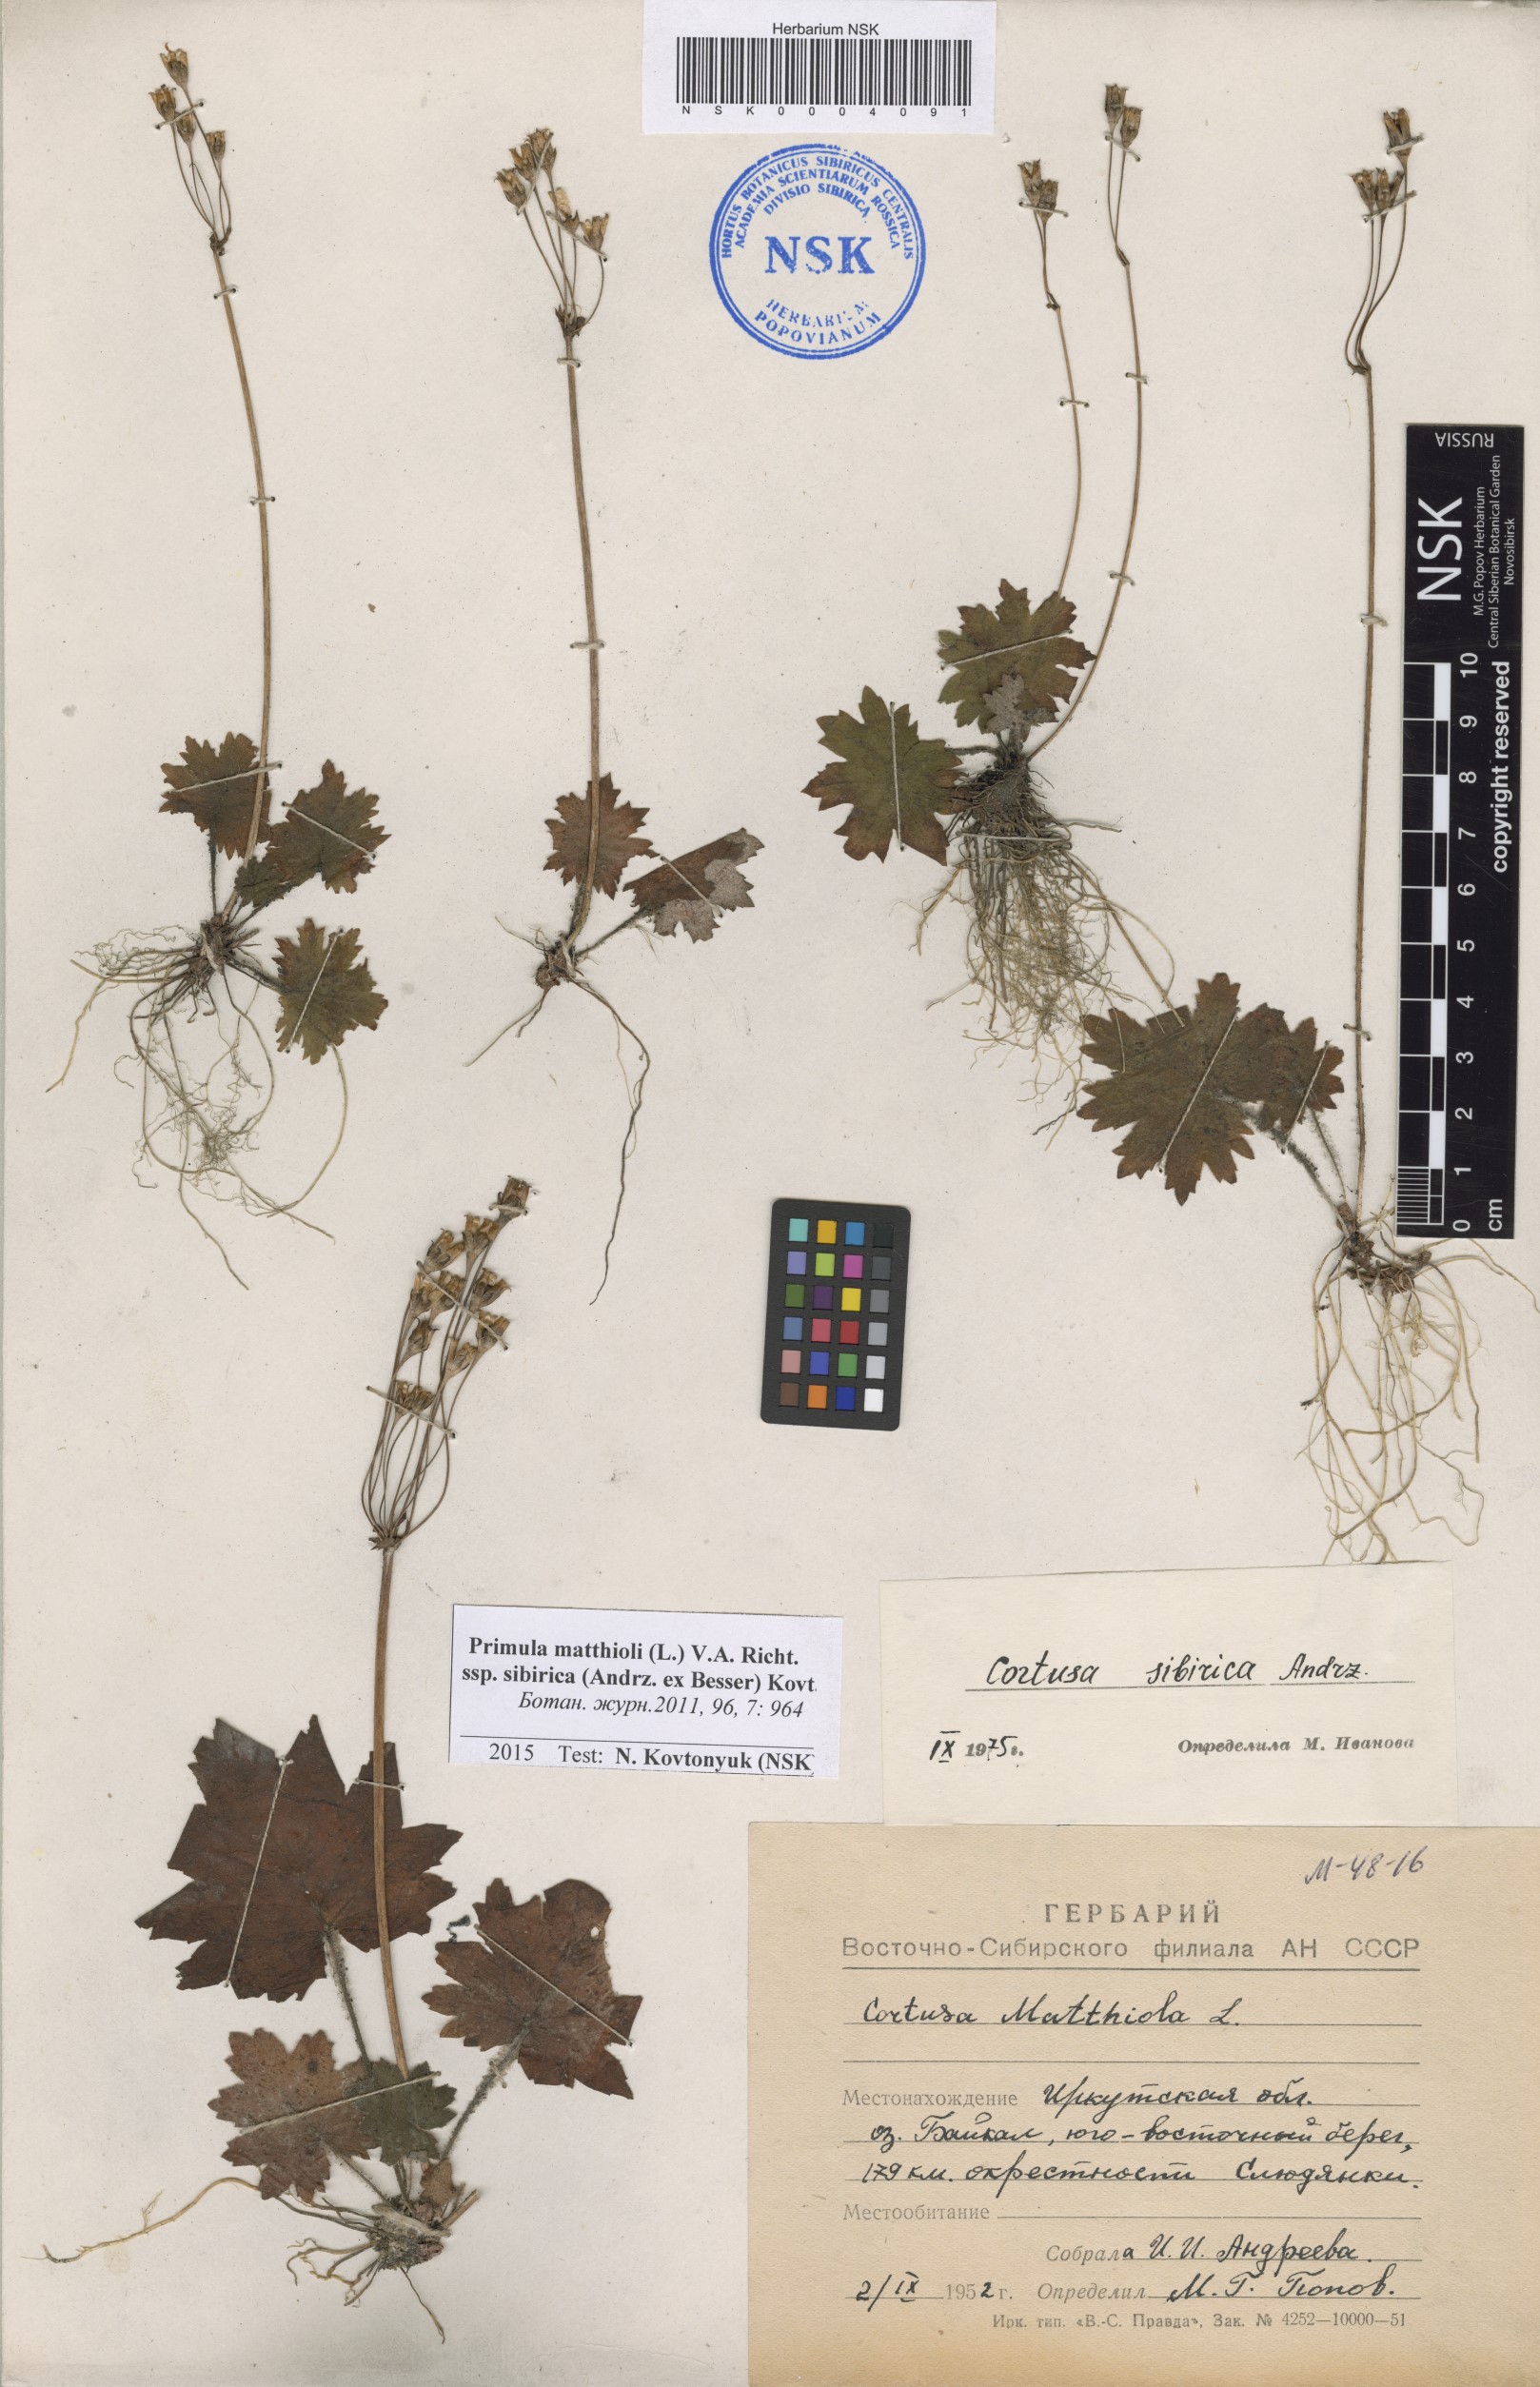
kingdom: Plantae
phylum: Tracheophyta
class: Magnoliopsida
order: Ericales
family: Primulaceae
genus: Primula
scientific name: Primula matthioli
